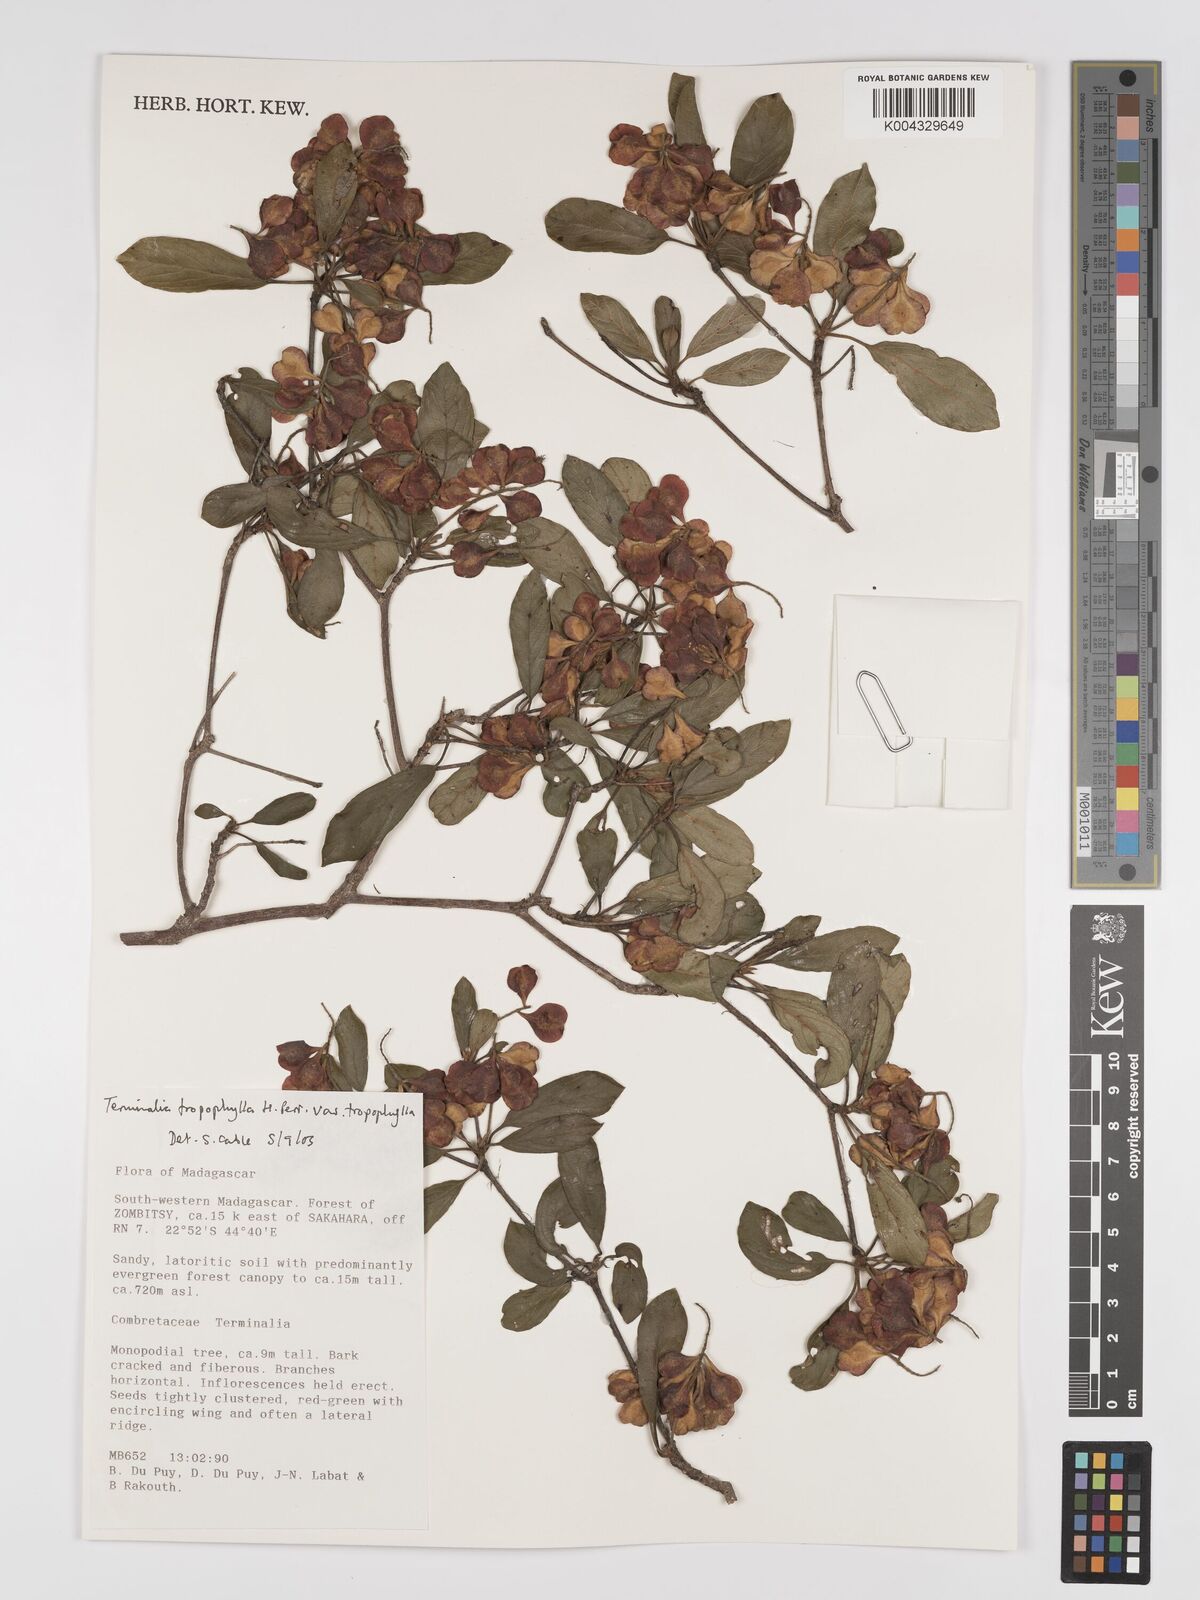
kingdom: Plantae
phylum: Tracheophyta
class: Magnoliopsida
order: Myrtales
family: Combretaceae
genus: Terminalia
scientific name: Terminalia tropophylla
